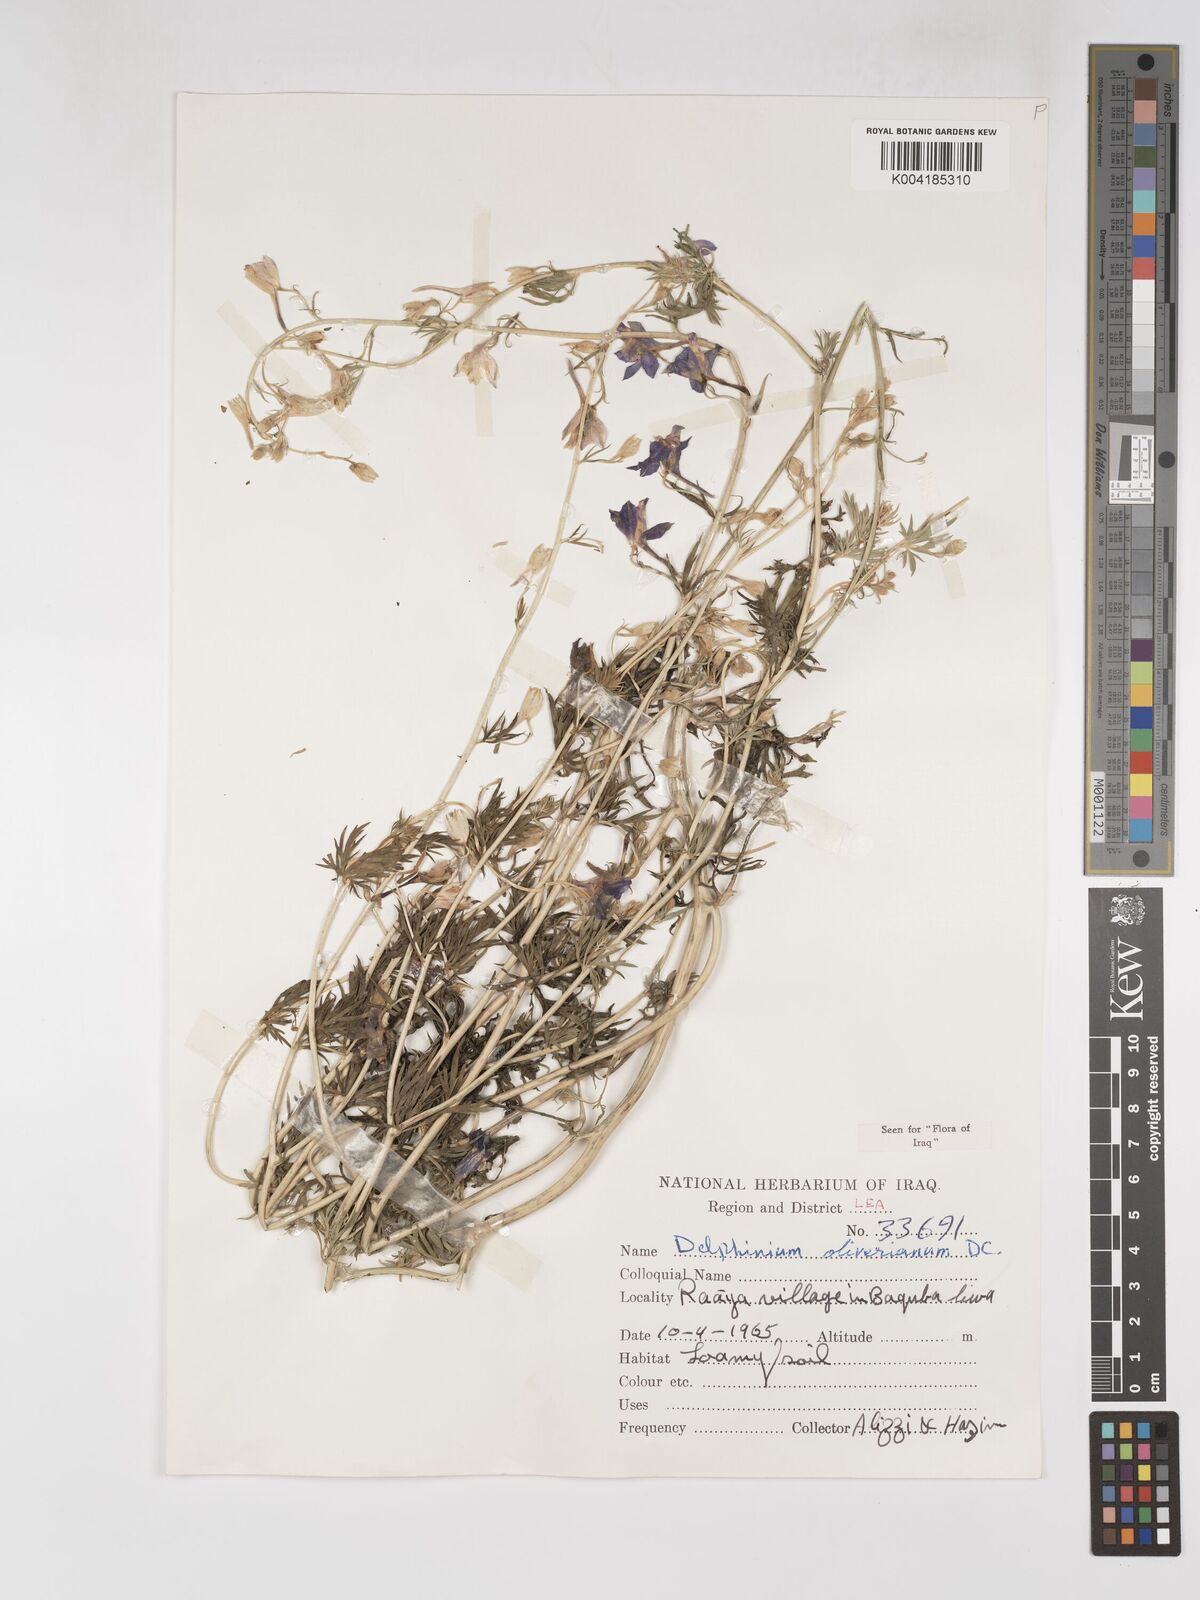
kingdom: Plantae
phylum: Tracheophyta
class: Magnoliopsida
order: Ranunculales
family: Ranunculaceae
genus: Delphinium
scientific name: Delphinium oliverianum
